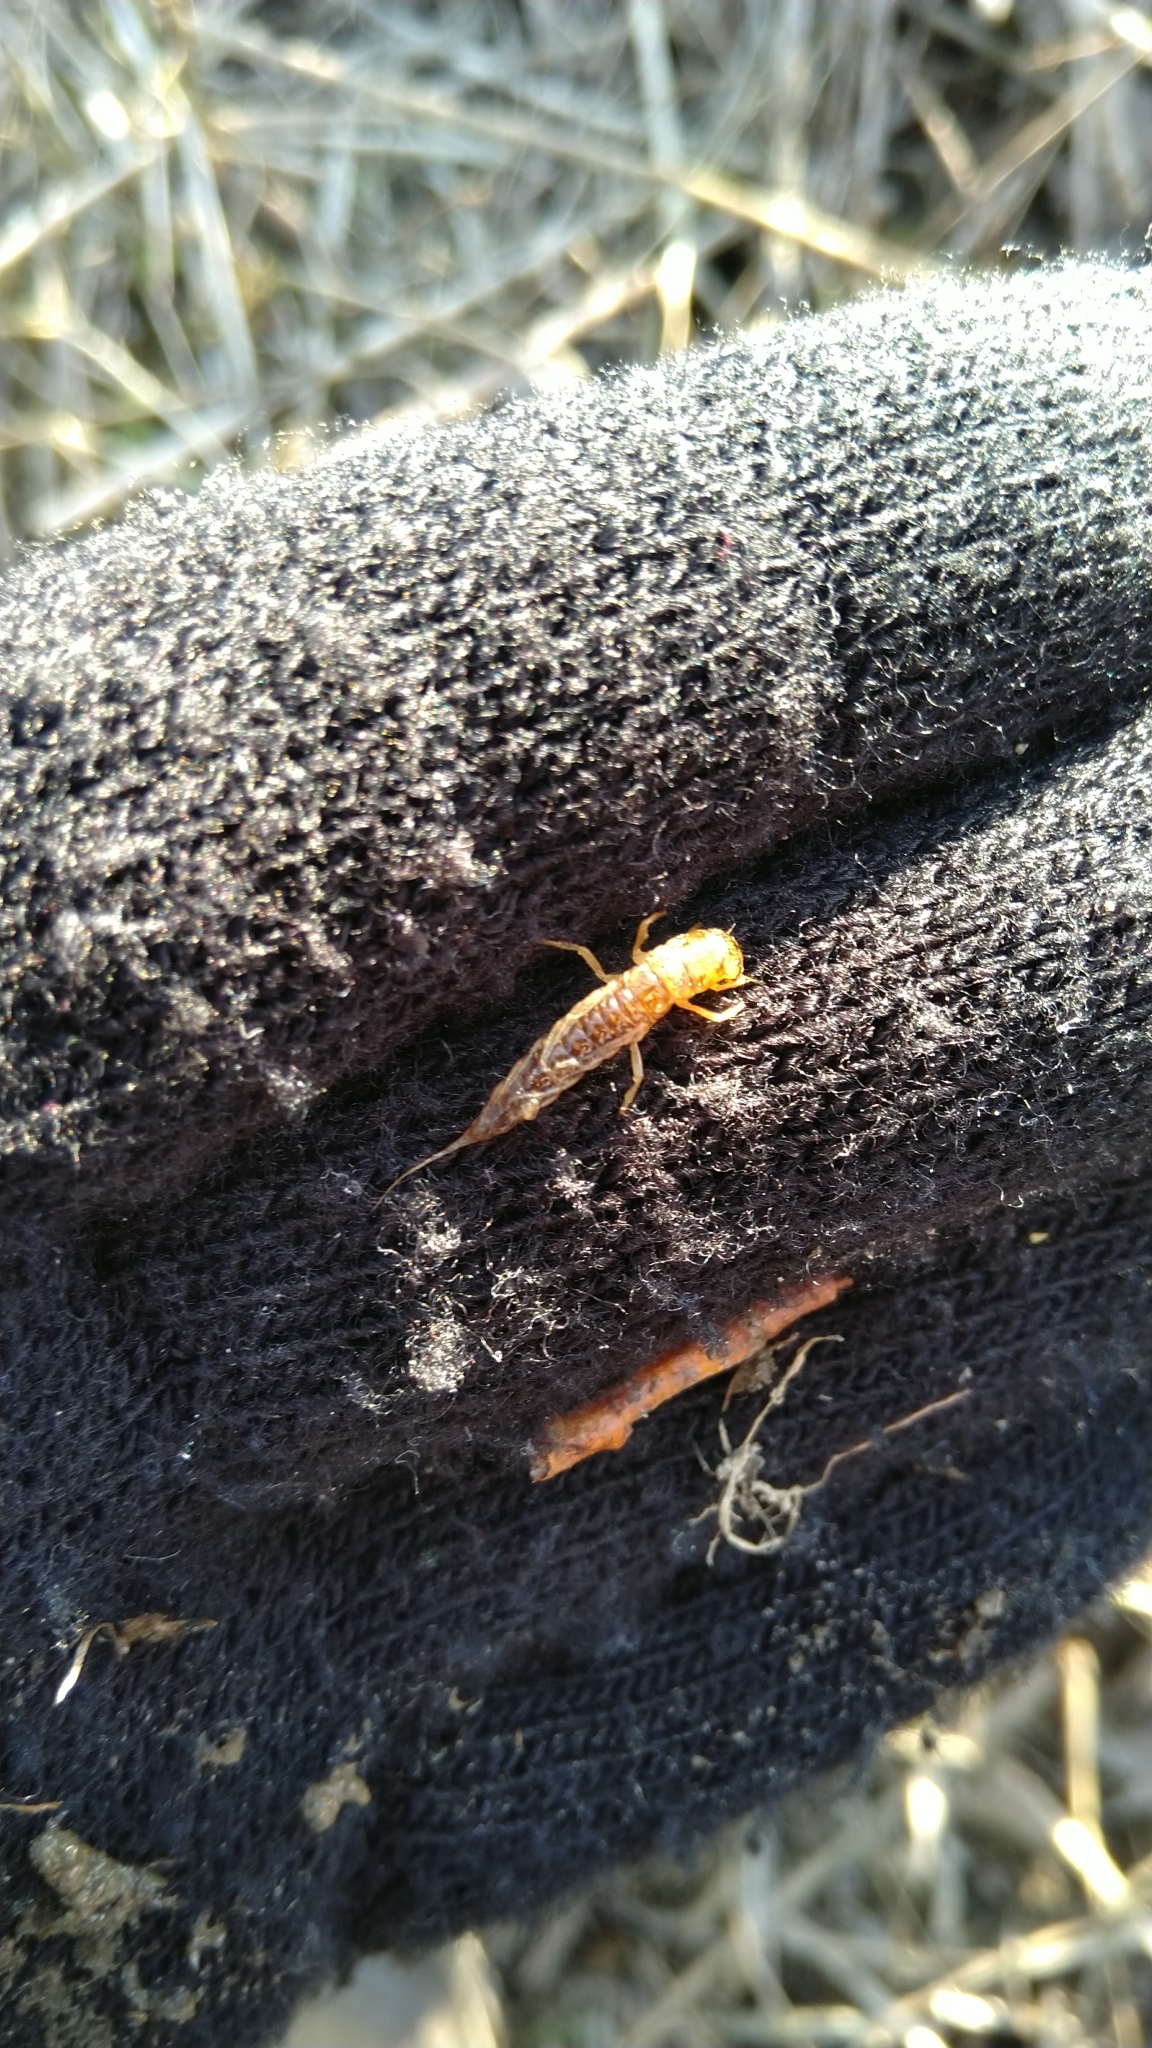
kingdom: Animalia
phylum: Arthropoda
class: Insecta
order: Megaloptera
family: Sialidae
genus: Sialis
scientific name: Sialis
